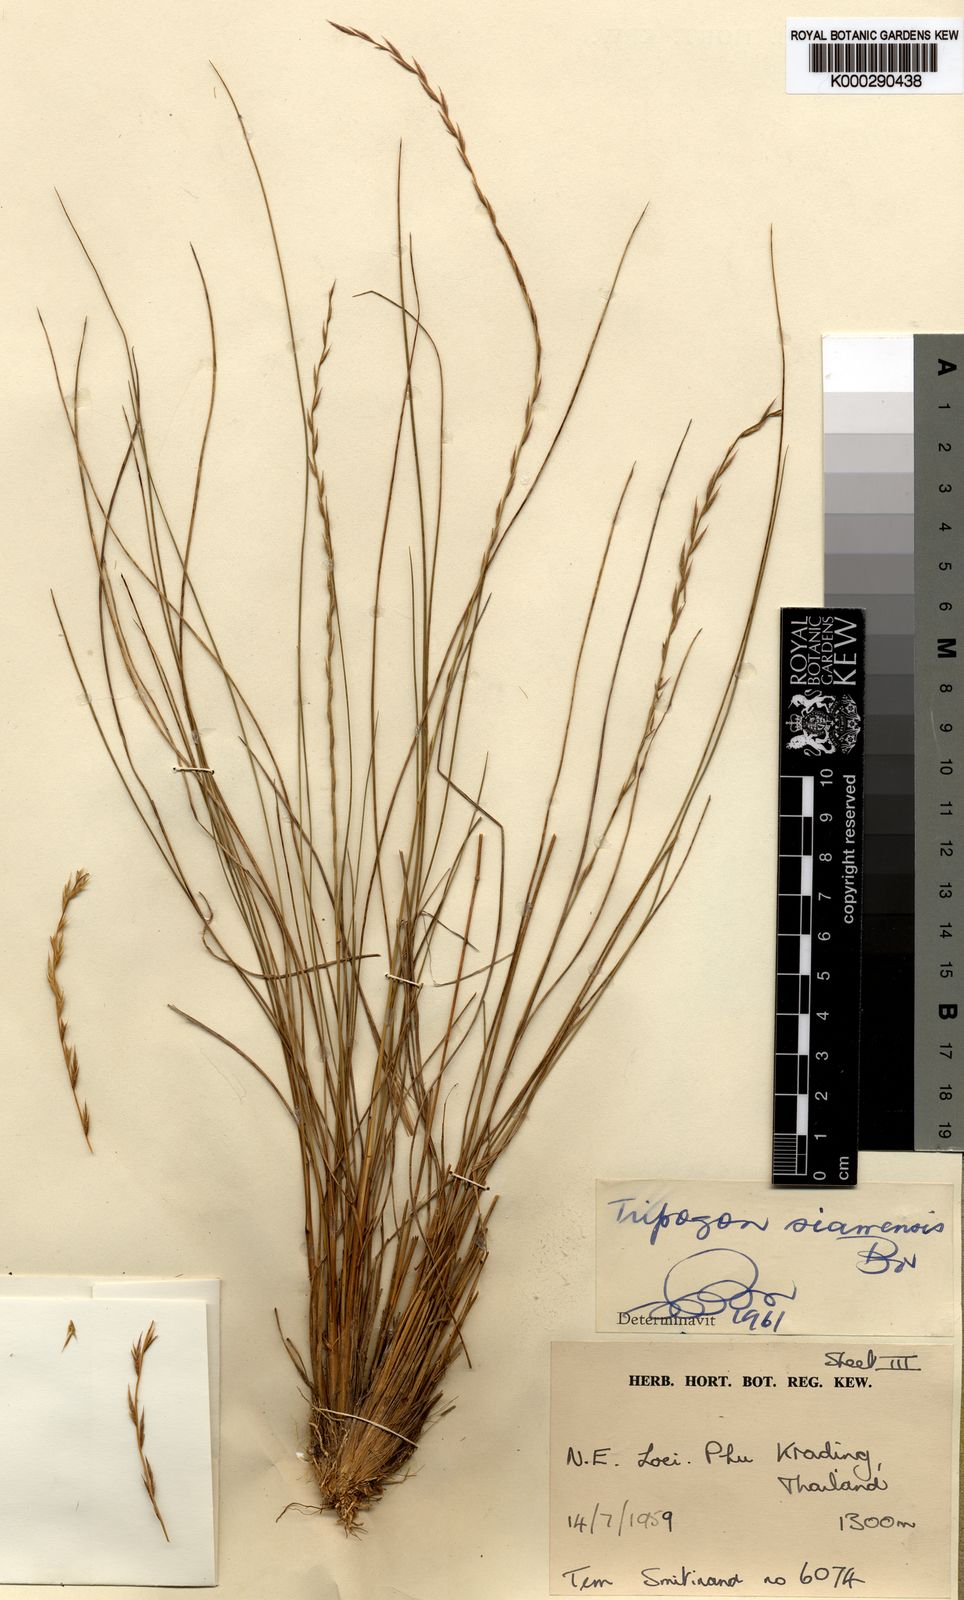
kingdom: Plantae
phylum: Tracheophyta
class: Liliopsida
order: Poales
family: Poaceae
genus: Tripogon
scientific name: Tripogon siamensis
